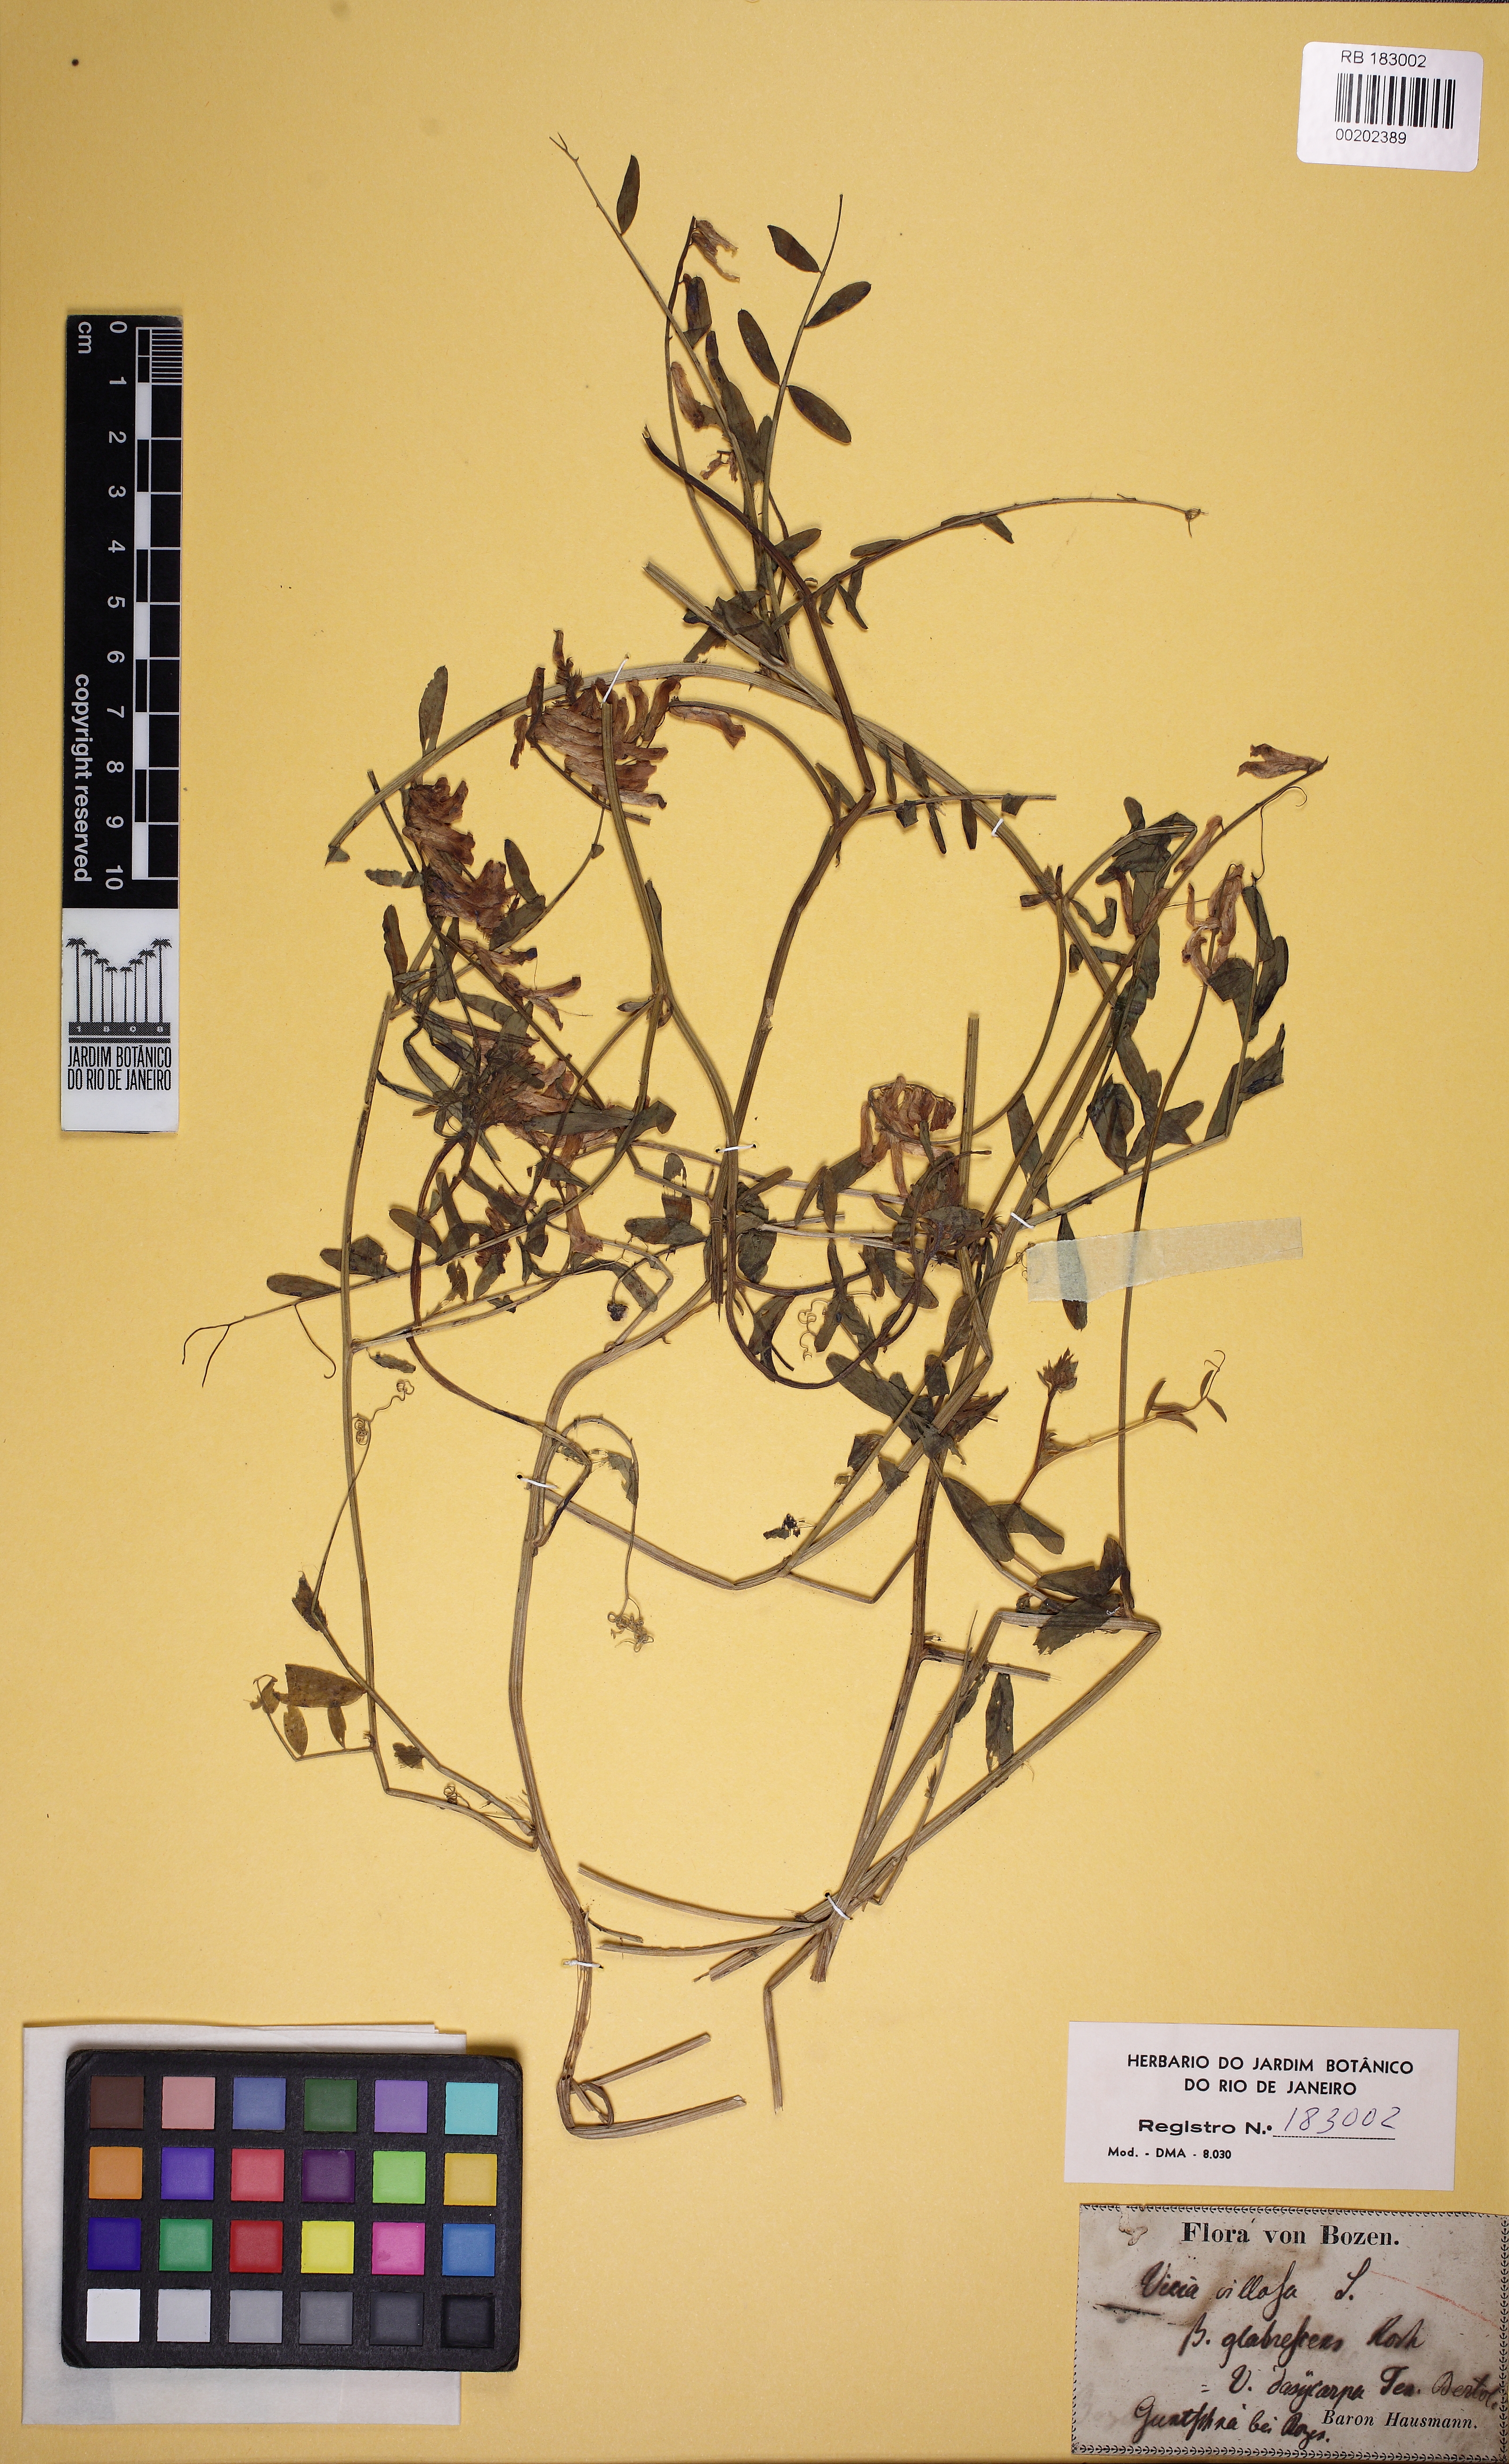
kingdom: Plantae
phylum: Tracheophyta
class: Magnoliopsida
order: Fabales
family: Fabaceae
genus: Vicia
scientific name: Vicia villosa
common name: Fodder vetch
